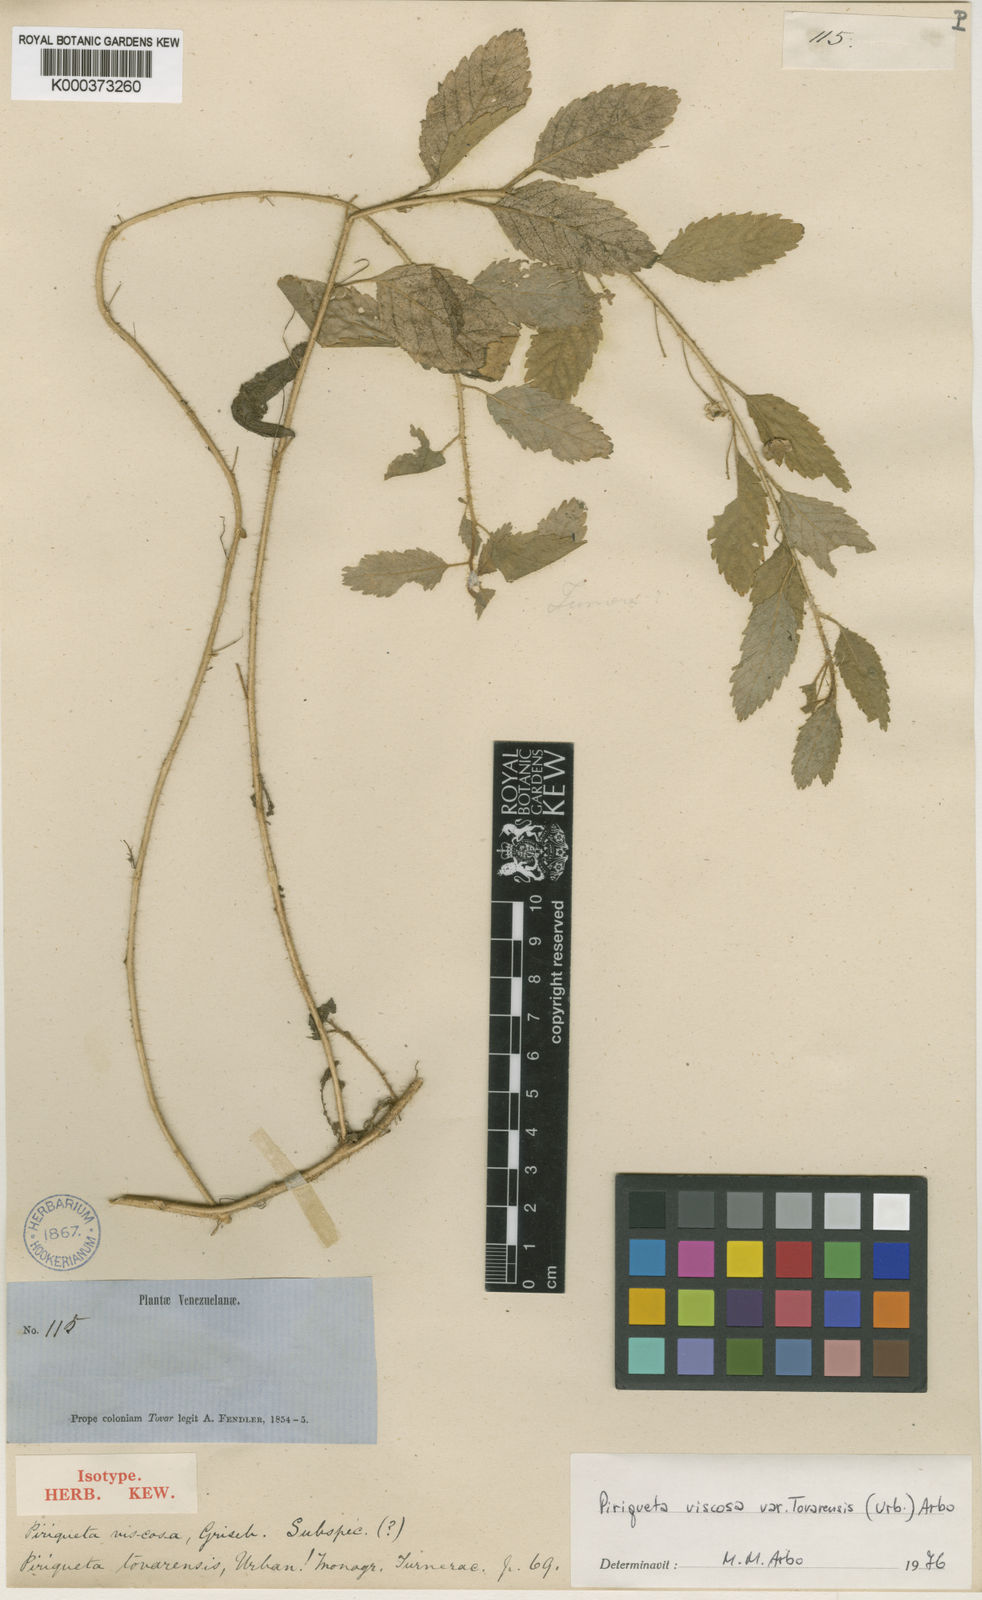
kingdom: Plantae
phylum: Tracheophyta
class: Magnoliopsida
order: Malpighiales
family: Turneraceae
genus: Piriqueta
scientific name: Piriqueta viscosa
